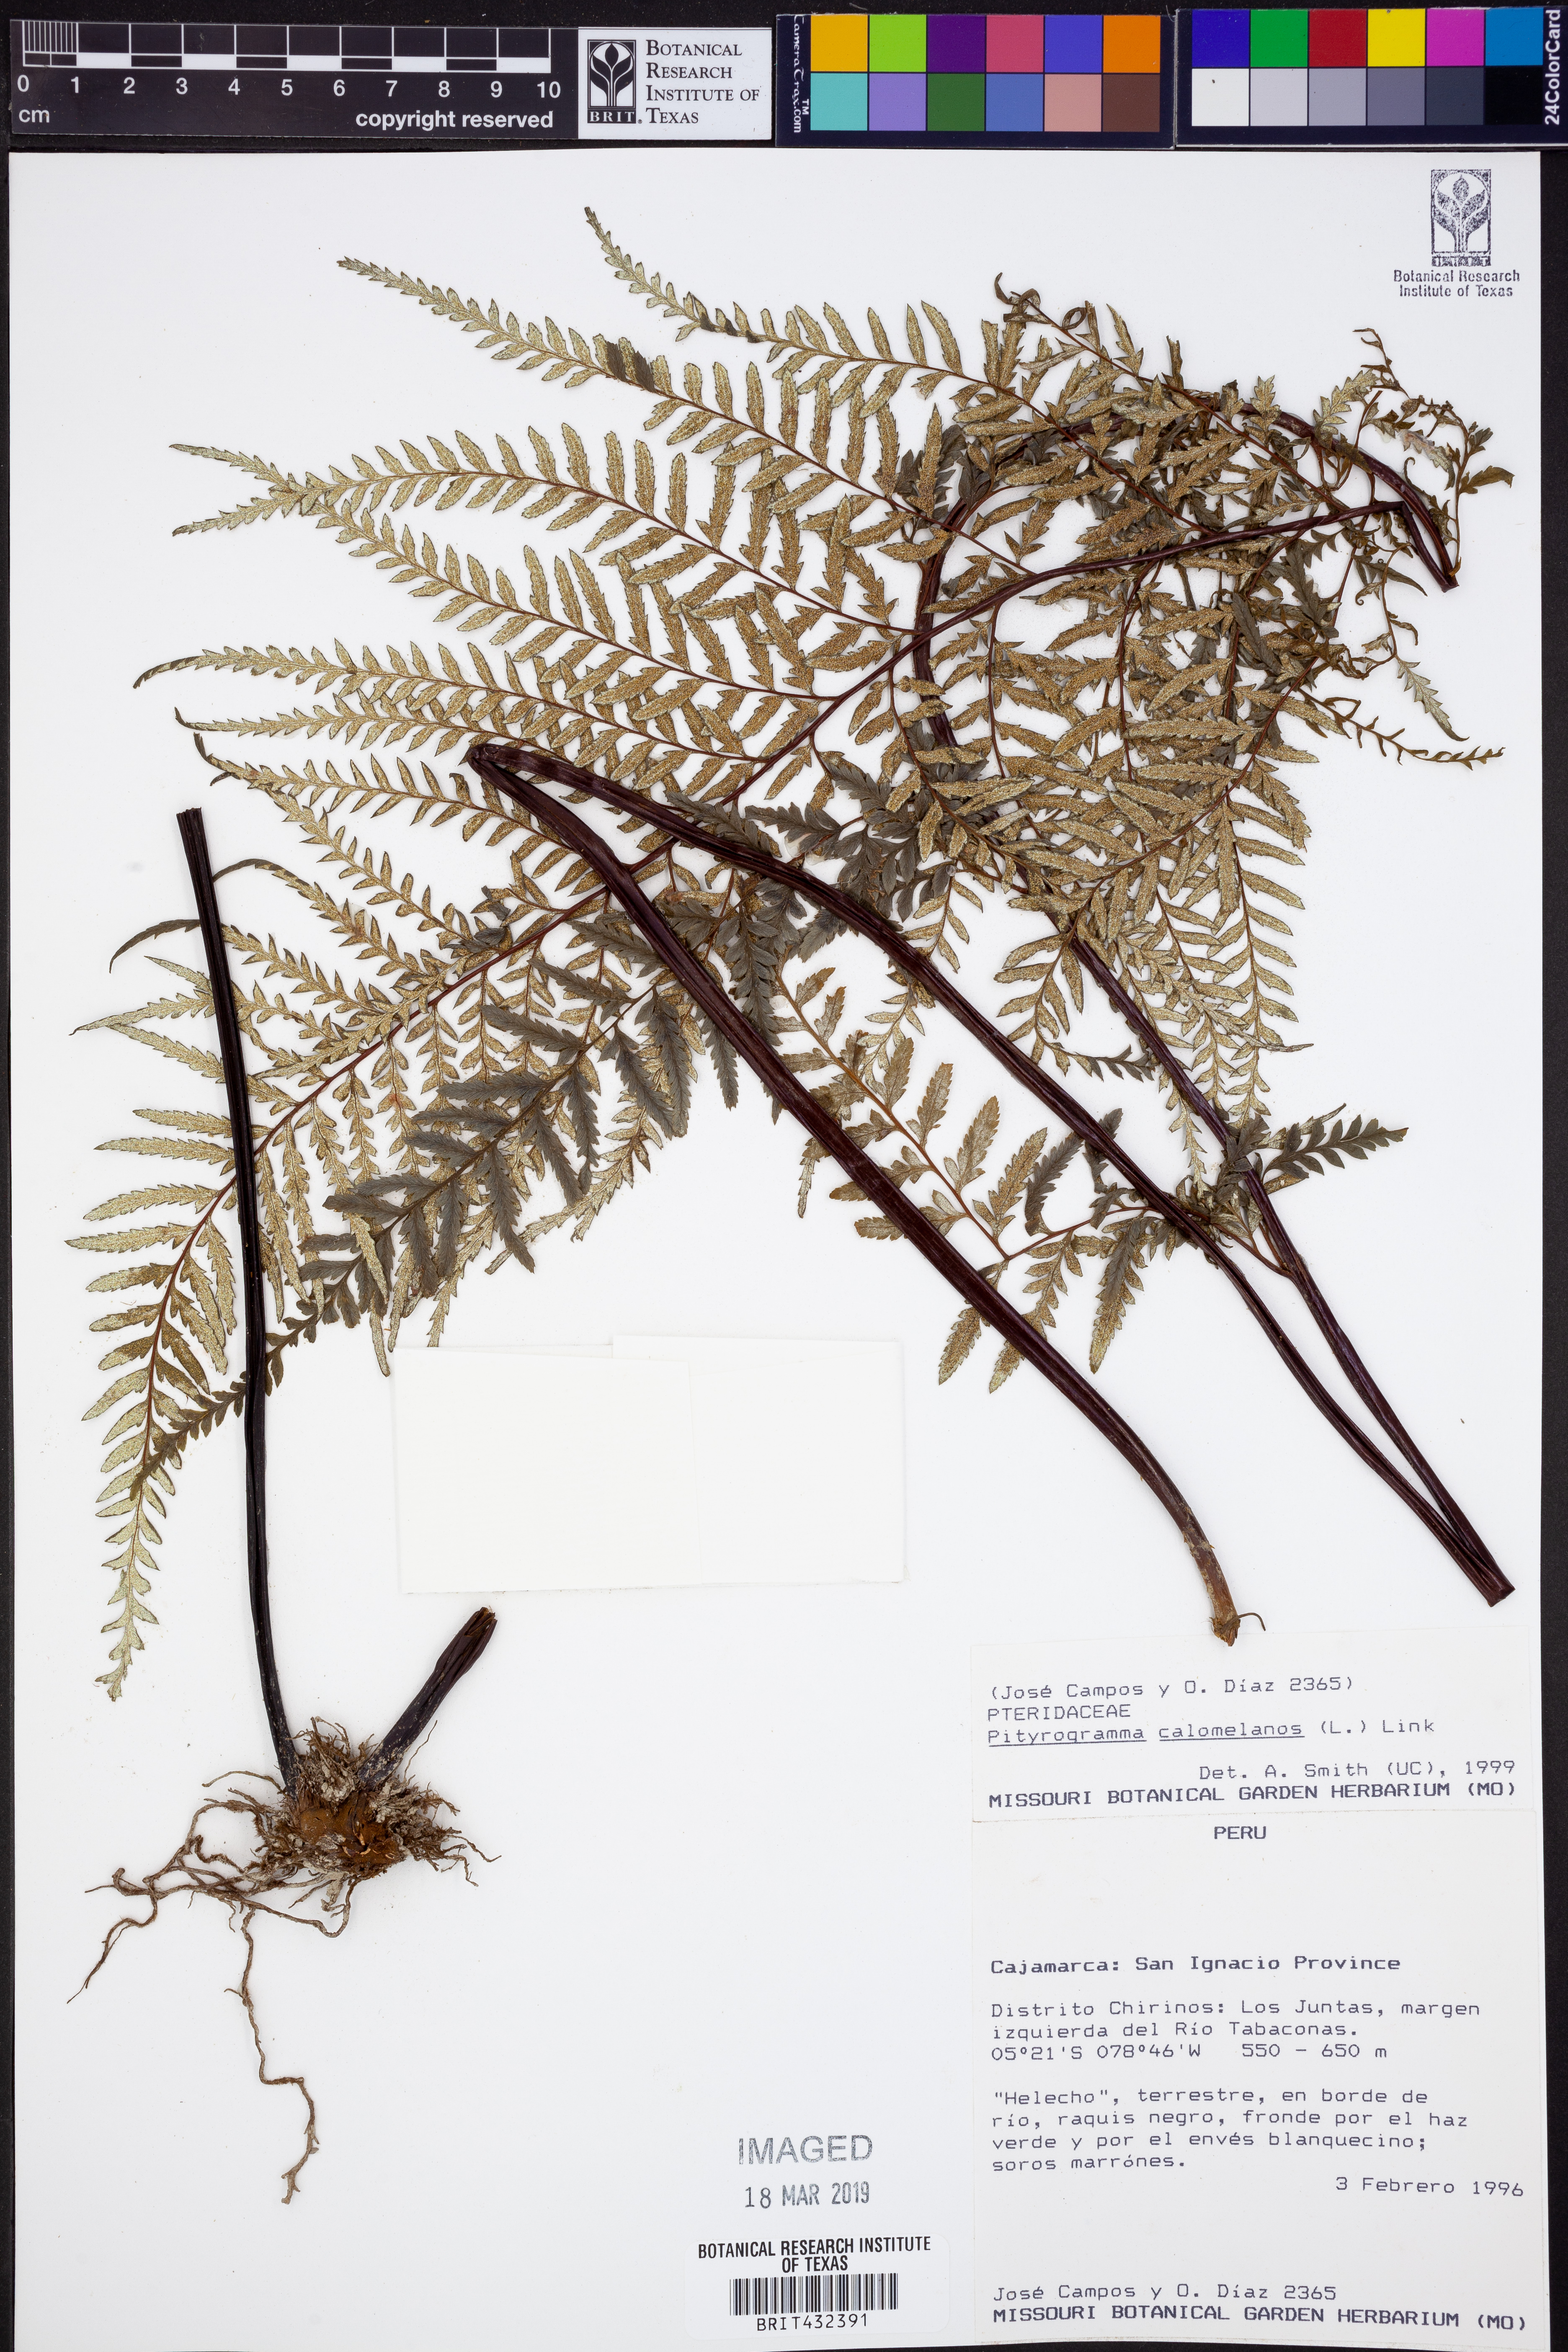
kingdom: Plantae
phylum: Tracheophyta
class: Polypodiopsida
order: Polypodiales
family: Pteridaceae
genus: Pityrogramma
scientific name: Pityrogramma calomelanos
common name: Dixie silverback fern
